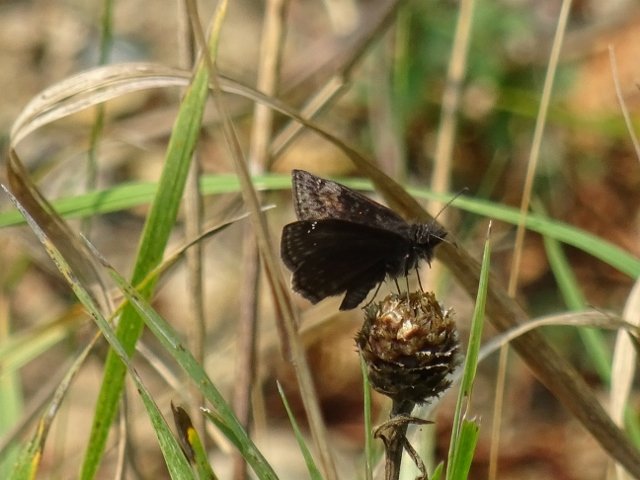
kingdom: Animalia
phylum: Arthropoda
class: Insecta
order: Lepidoptera
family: Hesperiidae
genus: Gesta
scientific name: Gesta
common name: Wild Indigo Duskywing
